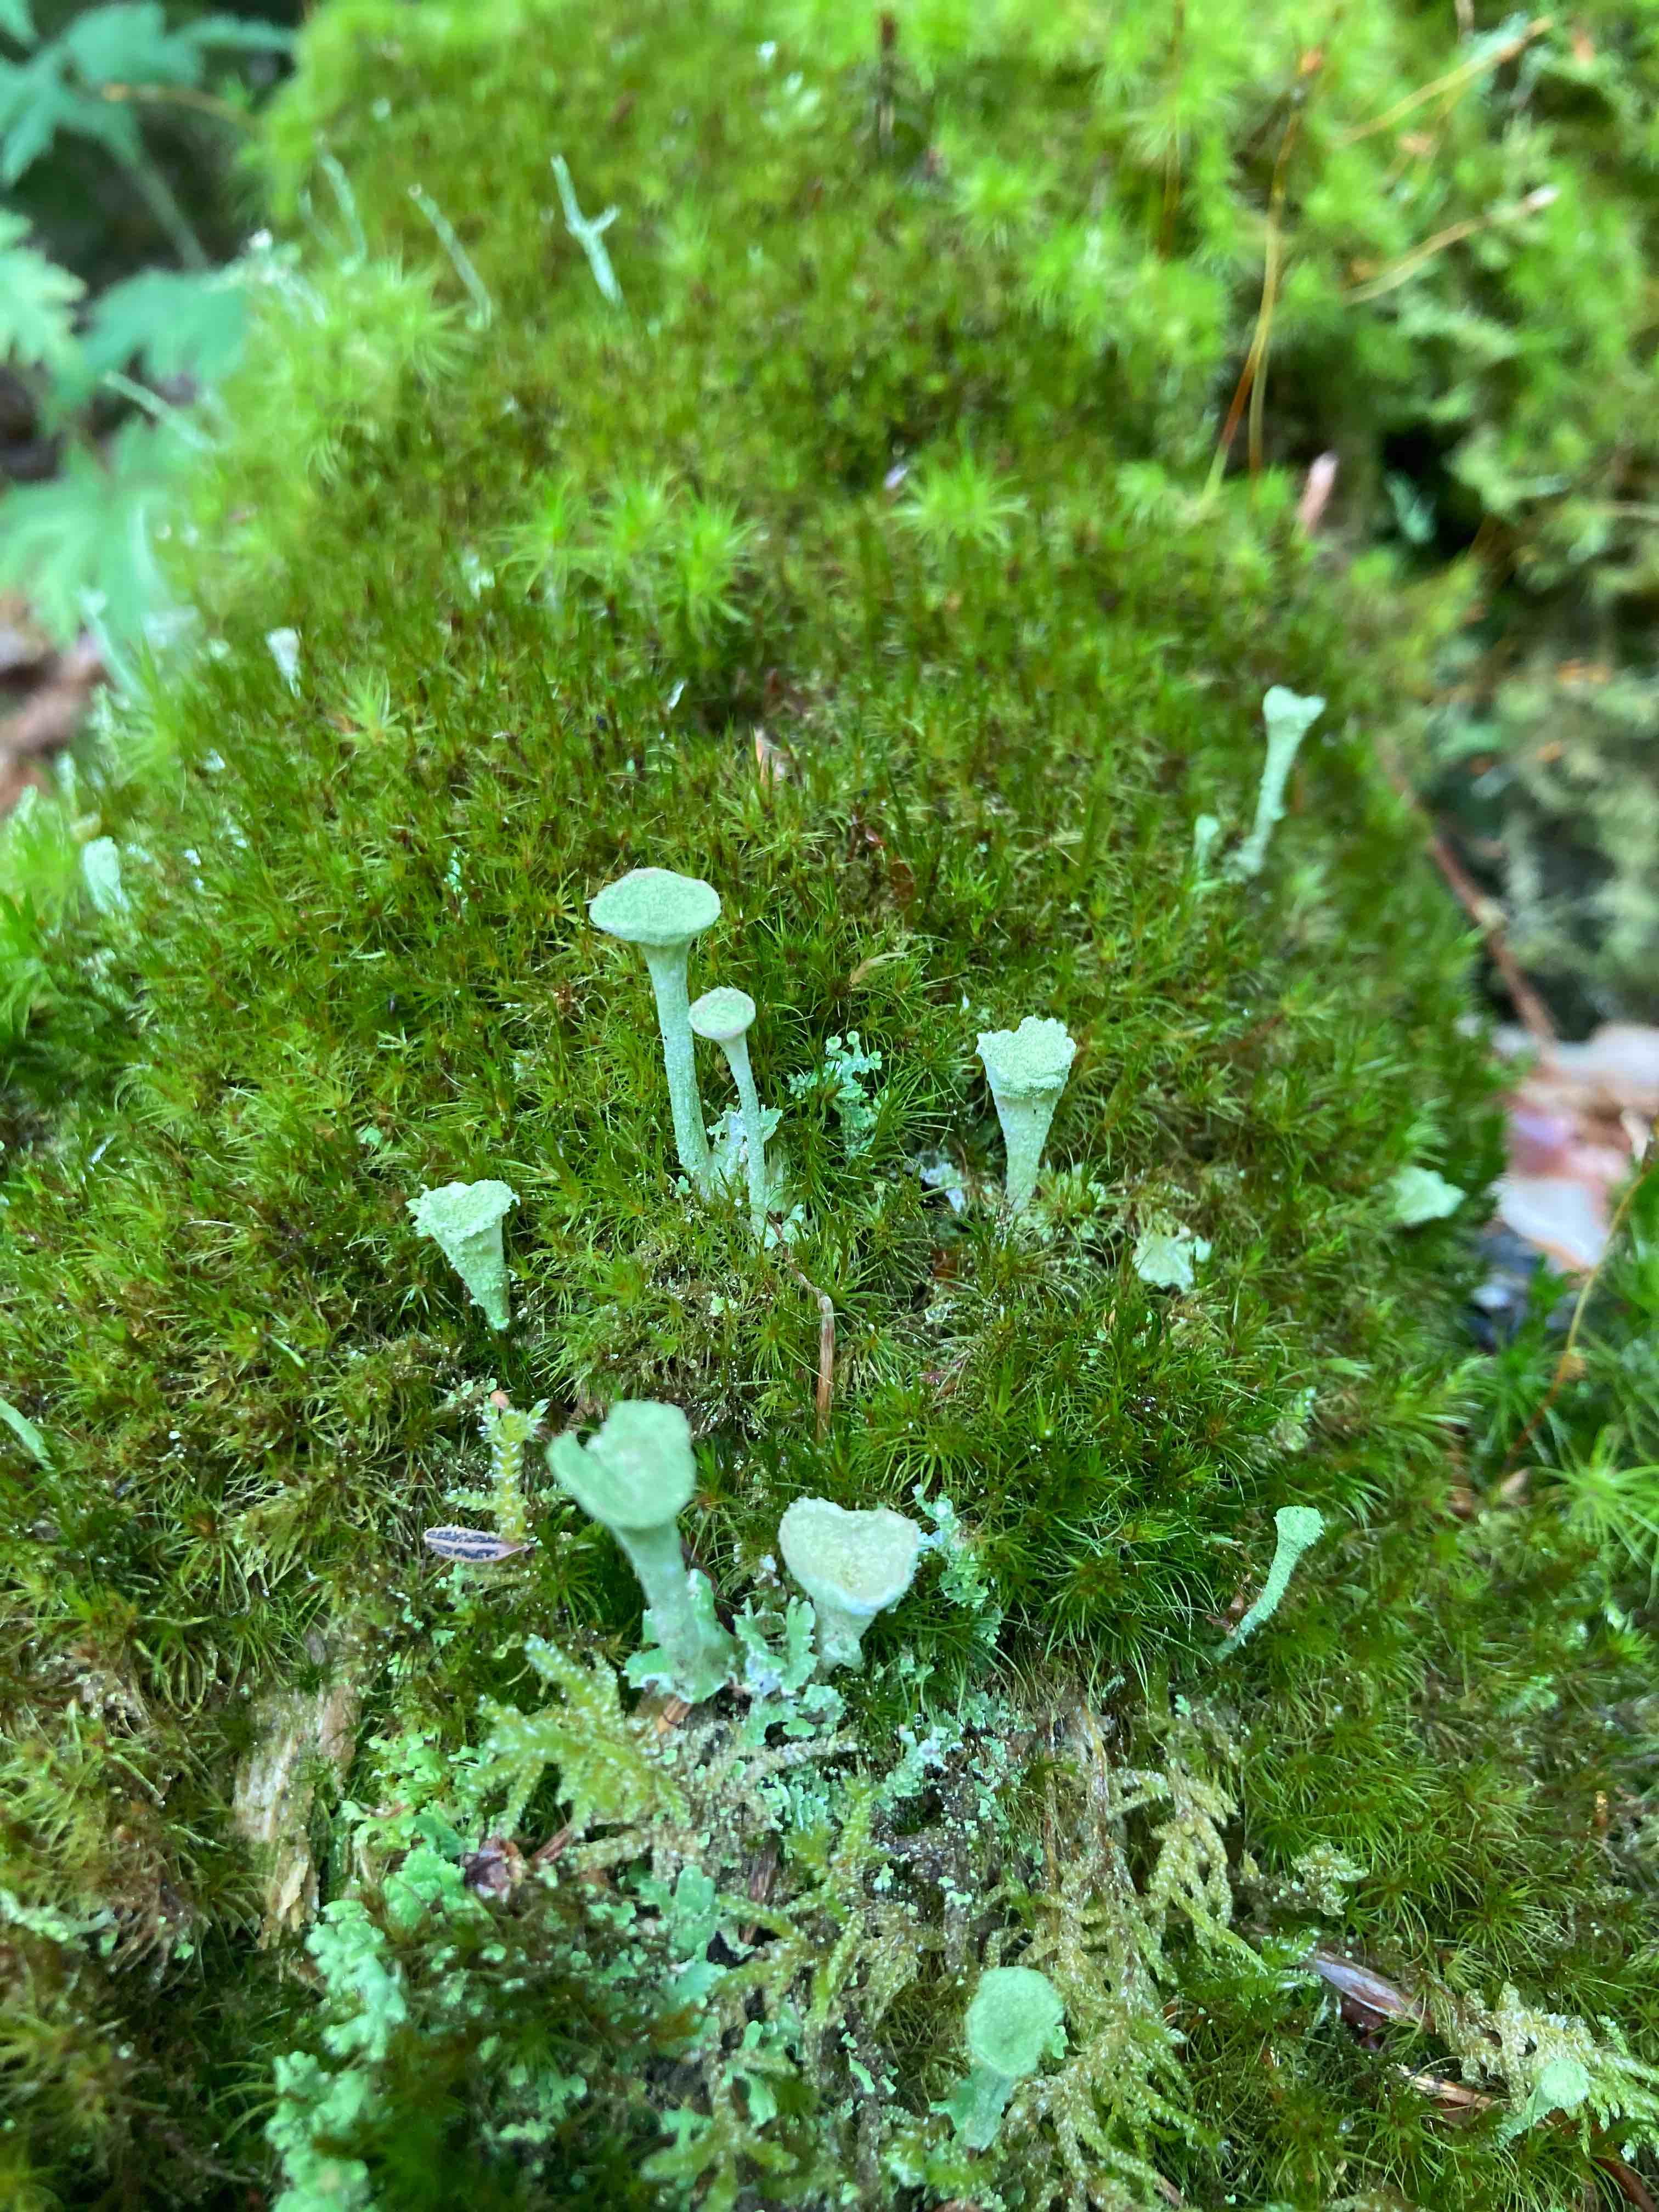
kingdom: Fungi
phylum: Ascomycota
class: Lecanoromycetes
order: Lecanorales
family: Cladoniaceae
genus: Cladonia
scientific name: Cladonia fimbriata
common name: bleggrøn bægerlav
